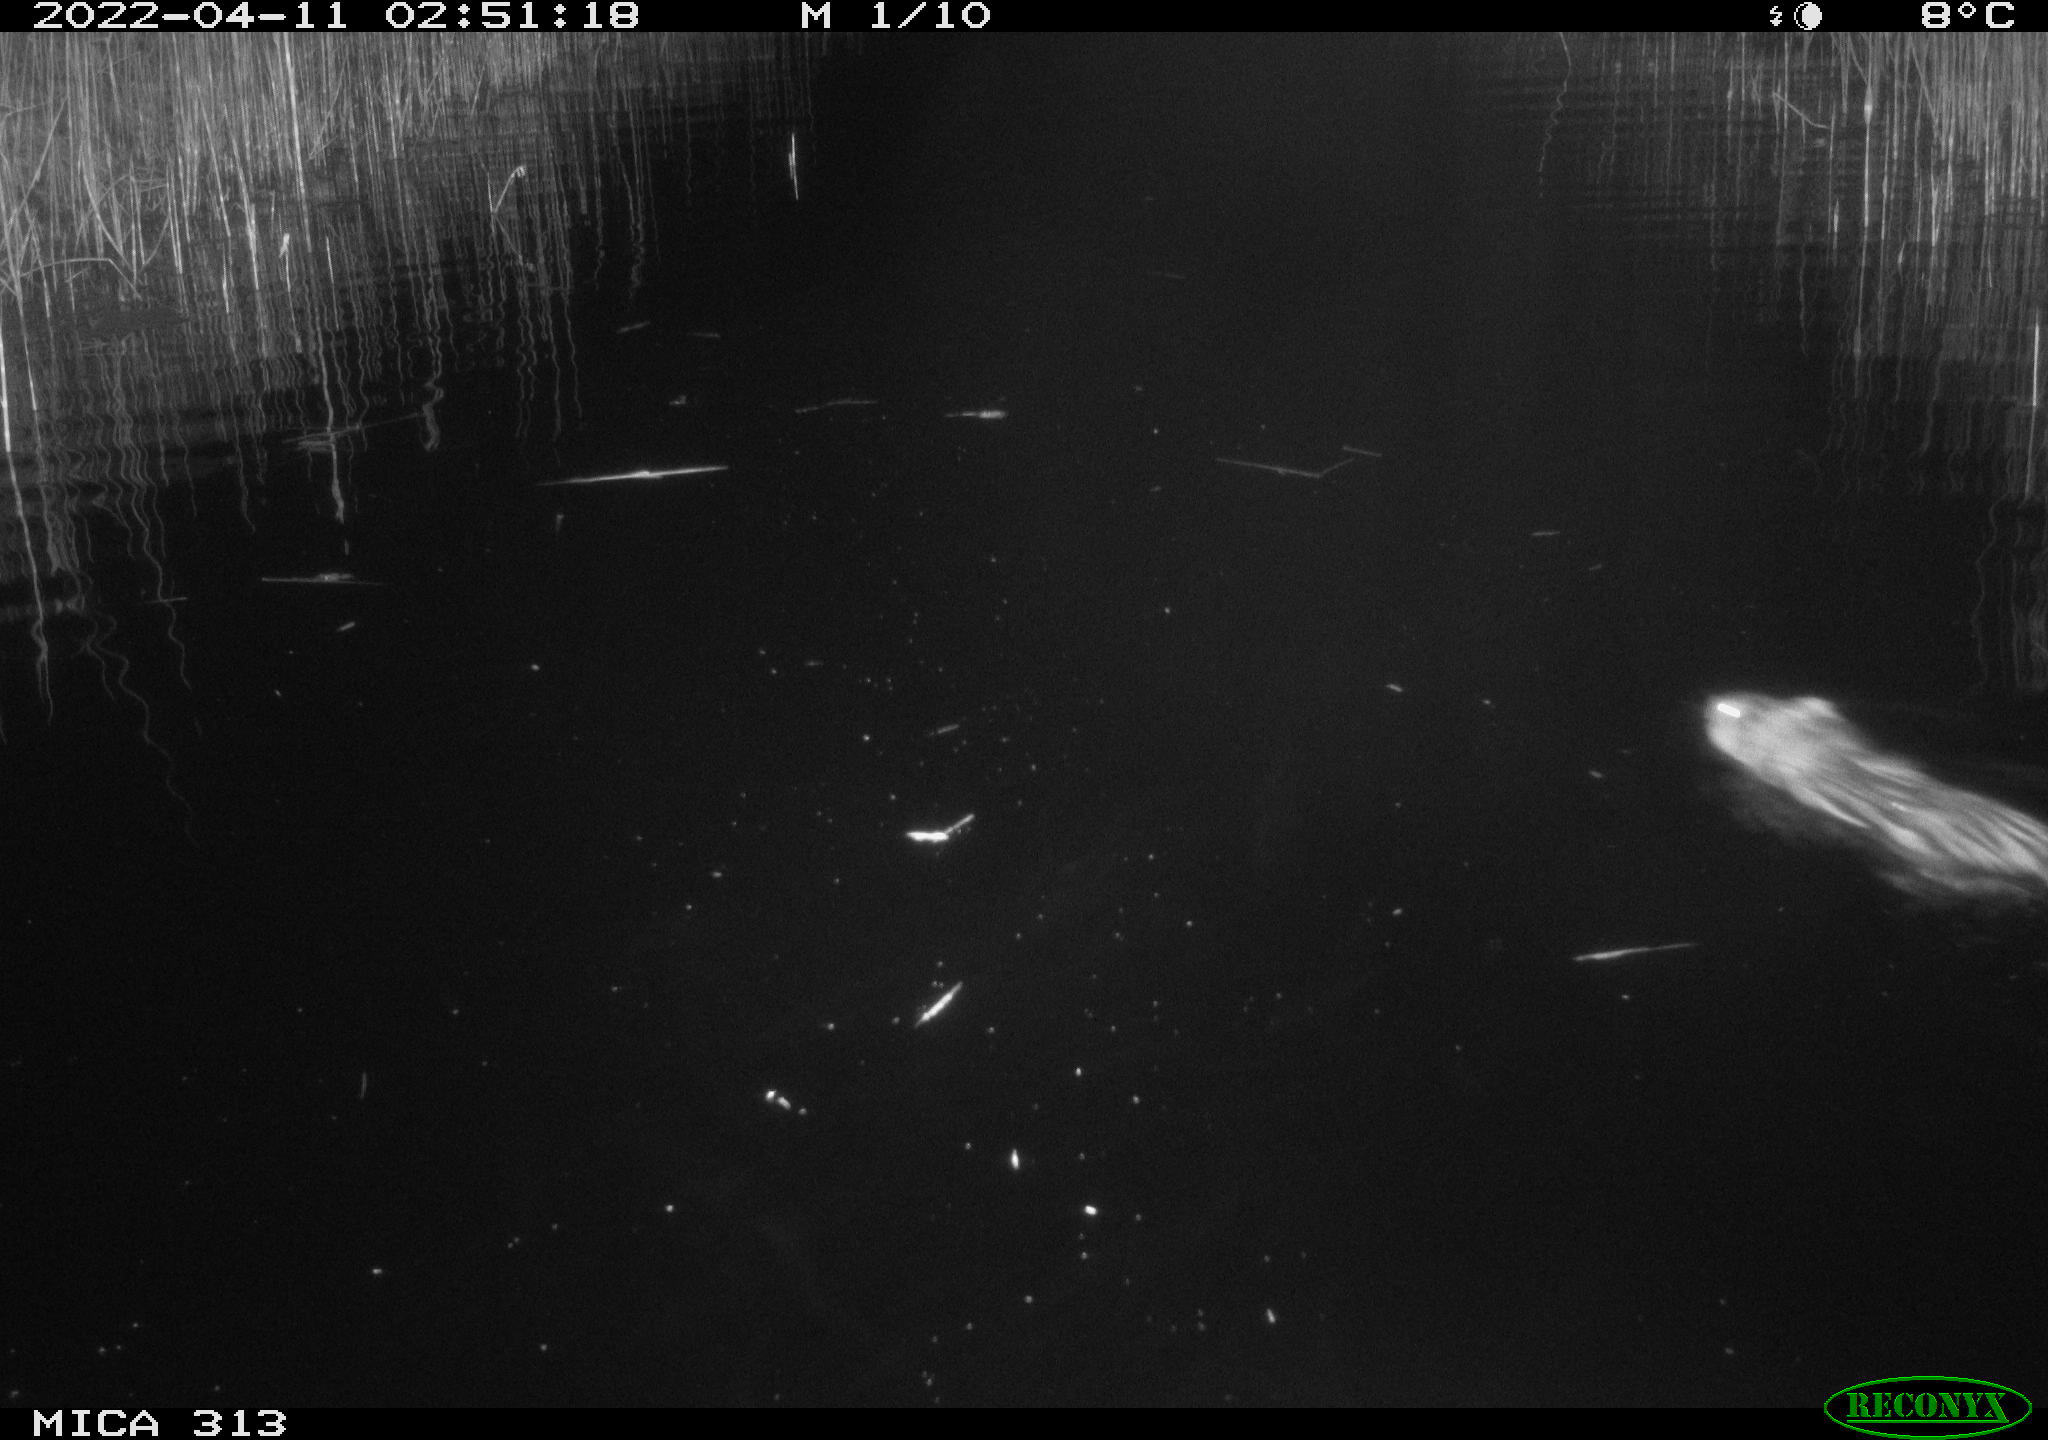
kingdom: Animalia
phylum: Chordata
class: Mammalia
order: Rodentia
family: Cricetidae
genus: Ondatra
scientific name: Ondatra zibethicus
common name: Muskrat
